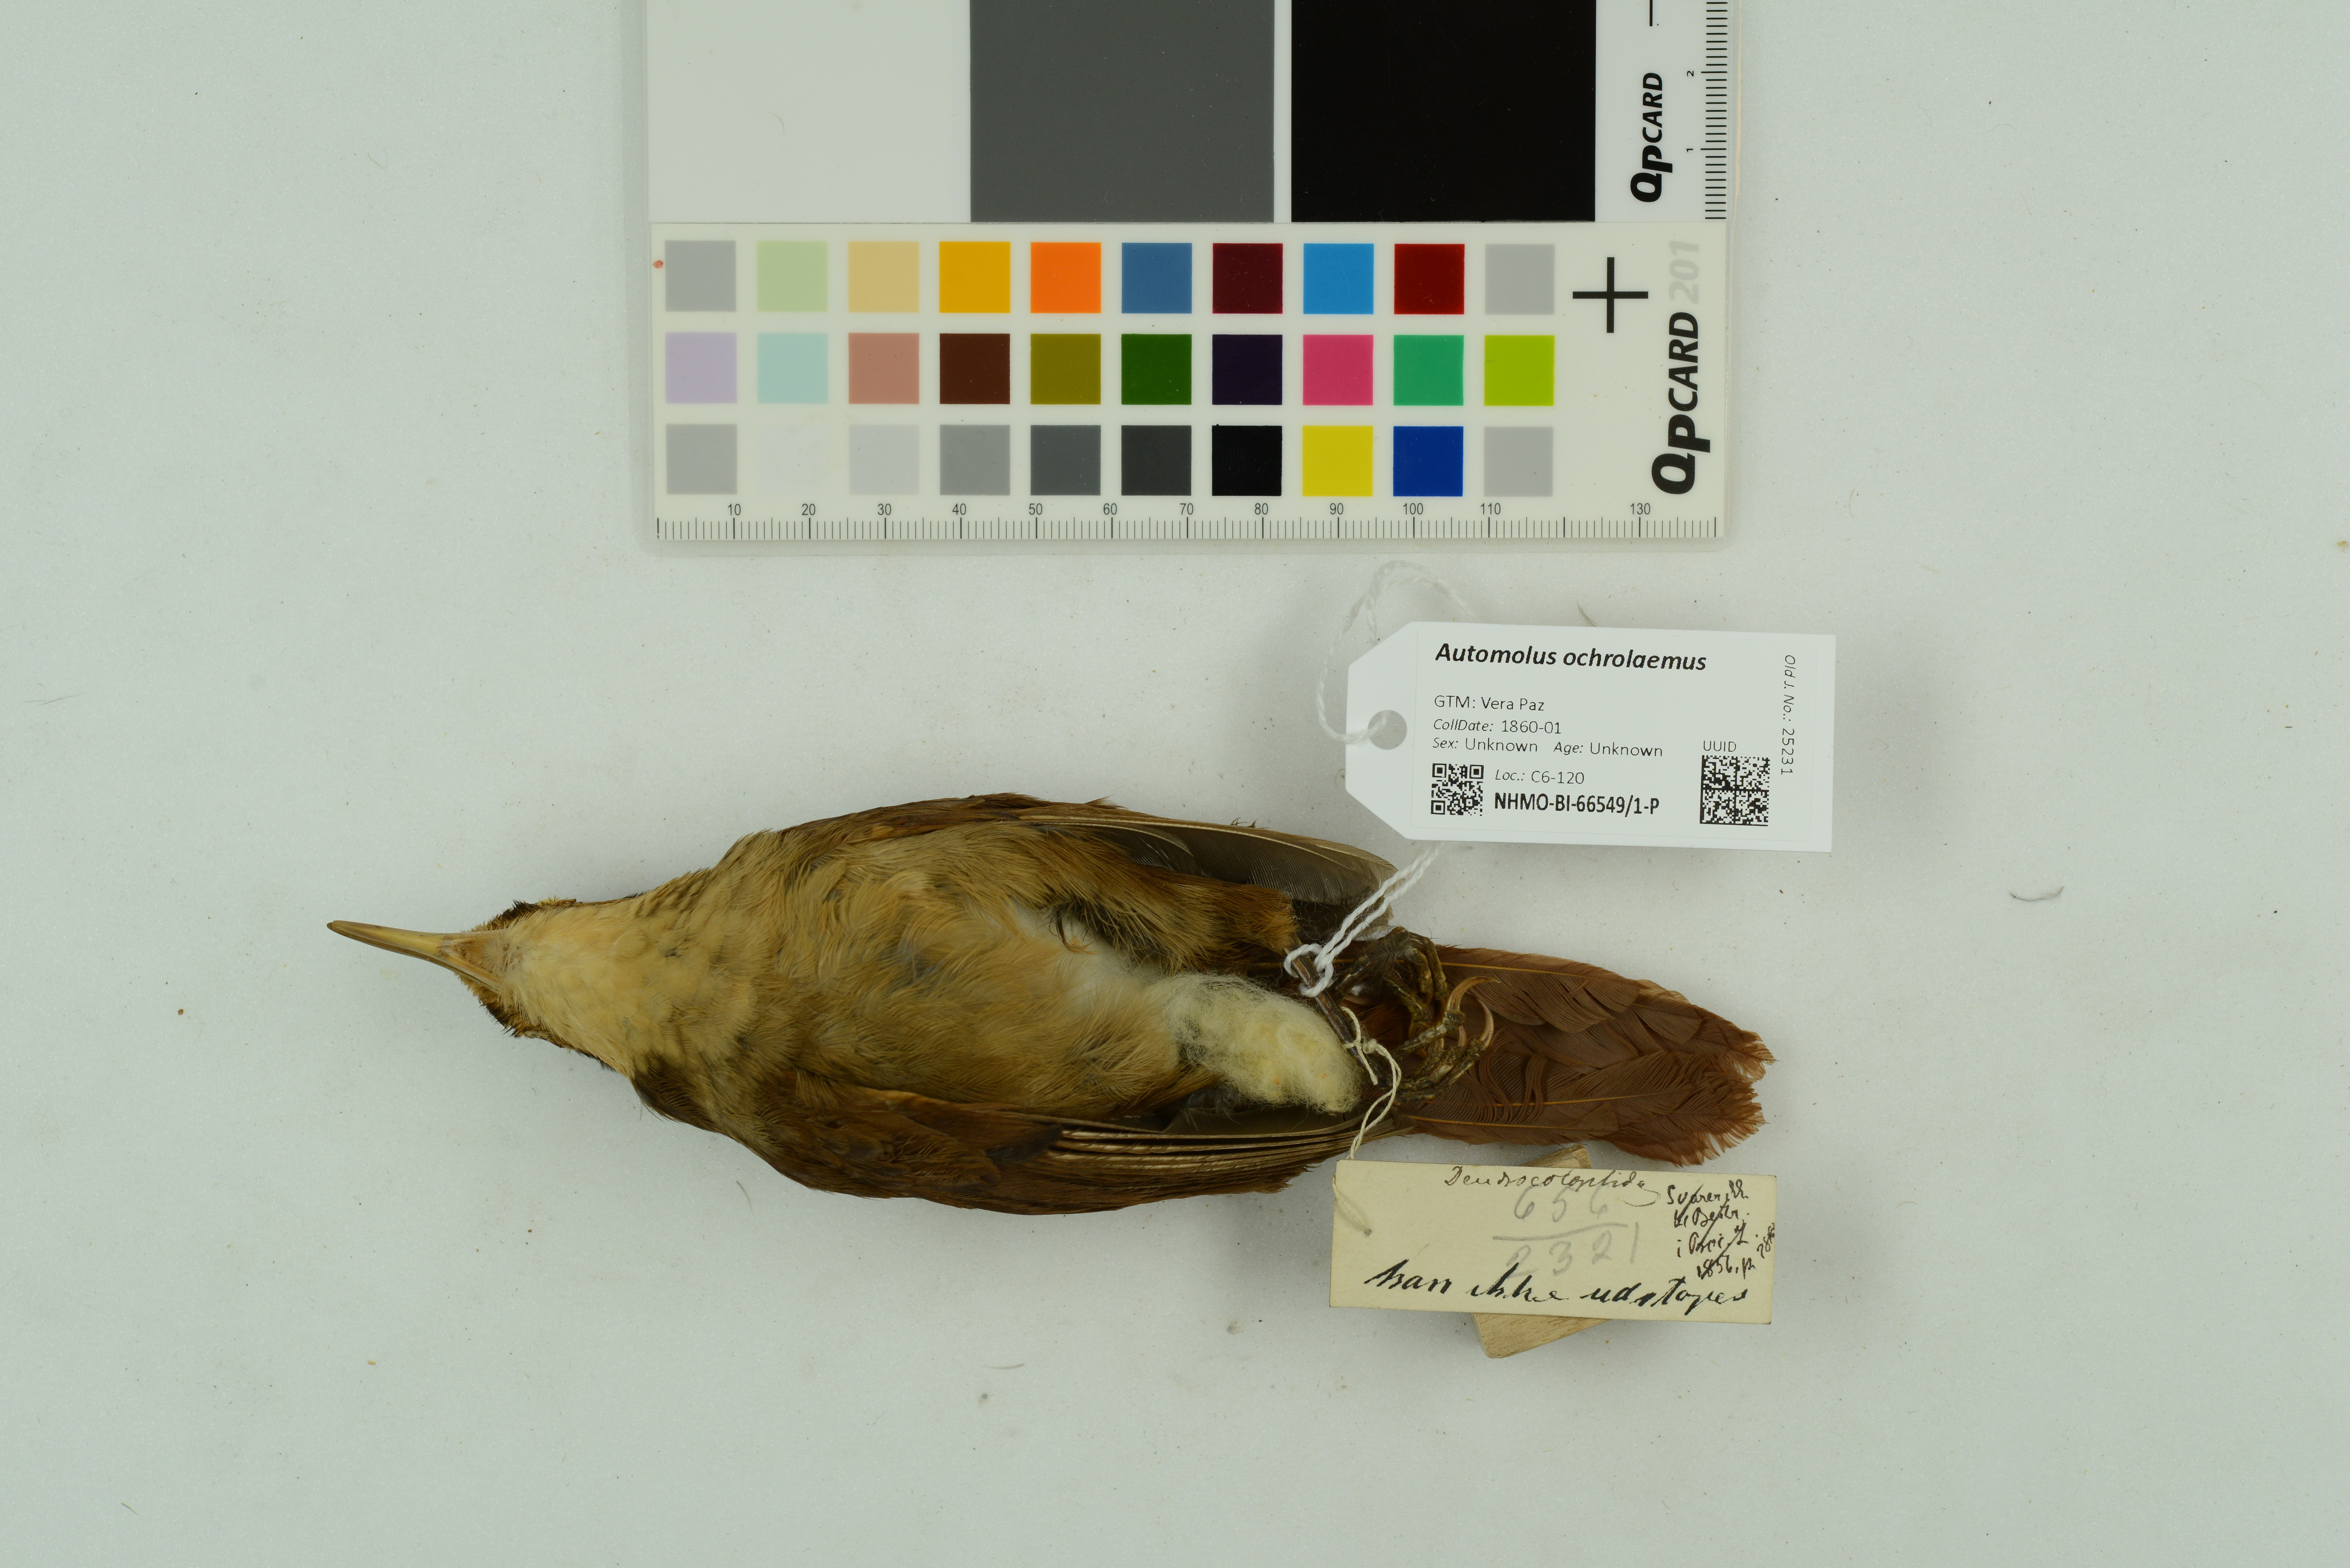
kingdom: Animalia
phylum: Chordata
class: Aves
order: Passeriformes
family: Furnariidae
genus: Automolus
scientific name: Automolus ochrolaemus
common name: Buff-throated foliage-gleaner
